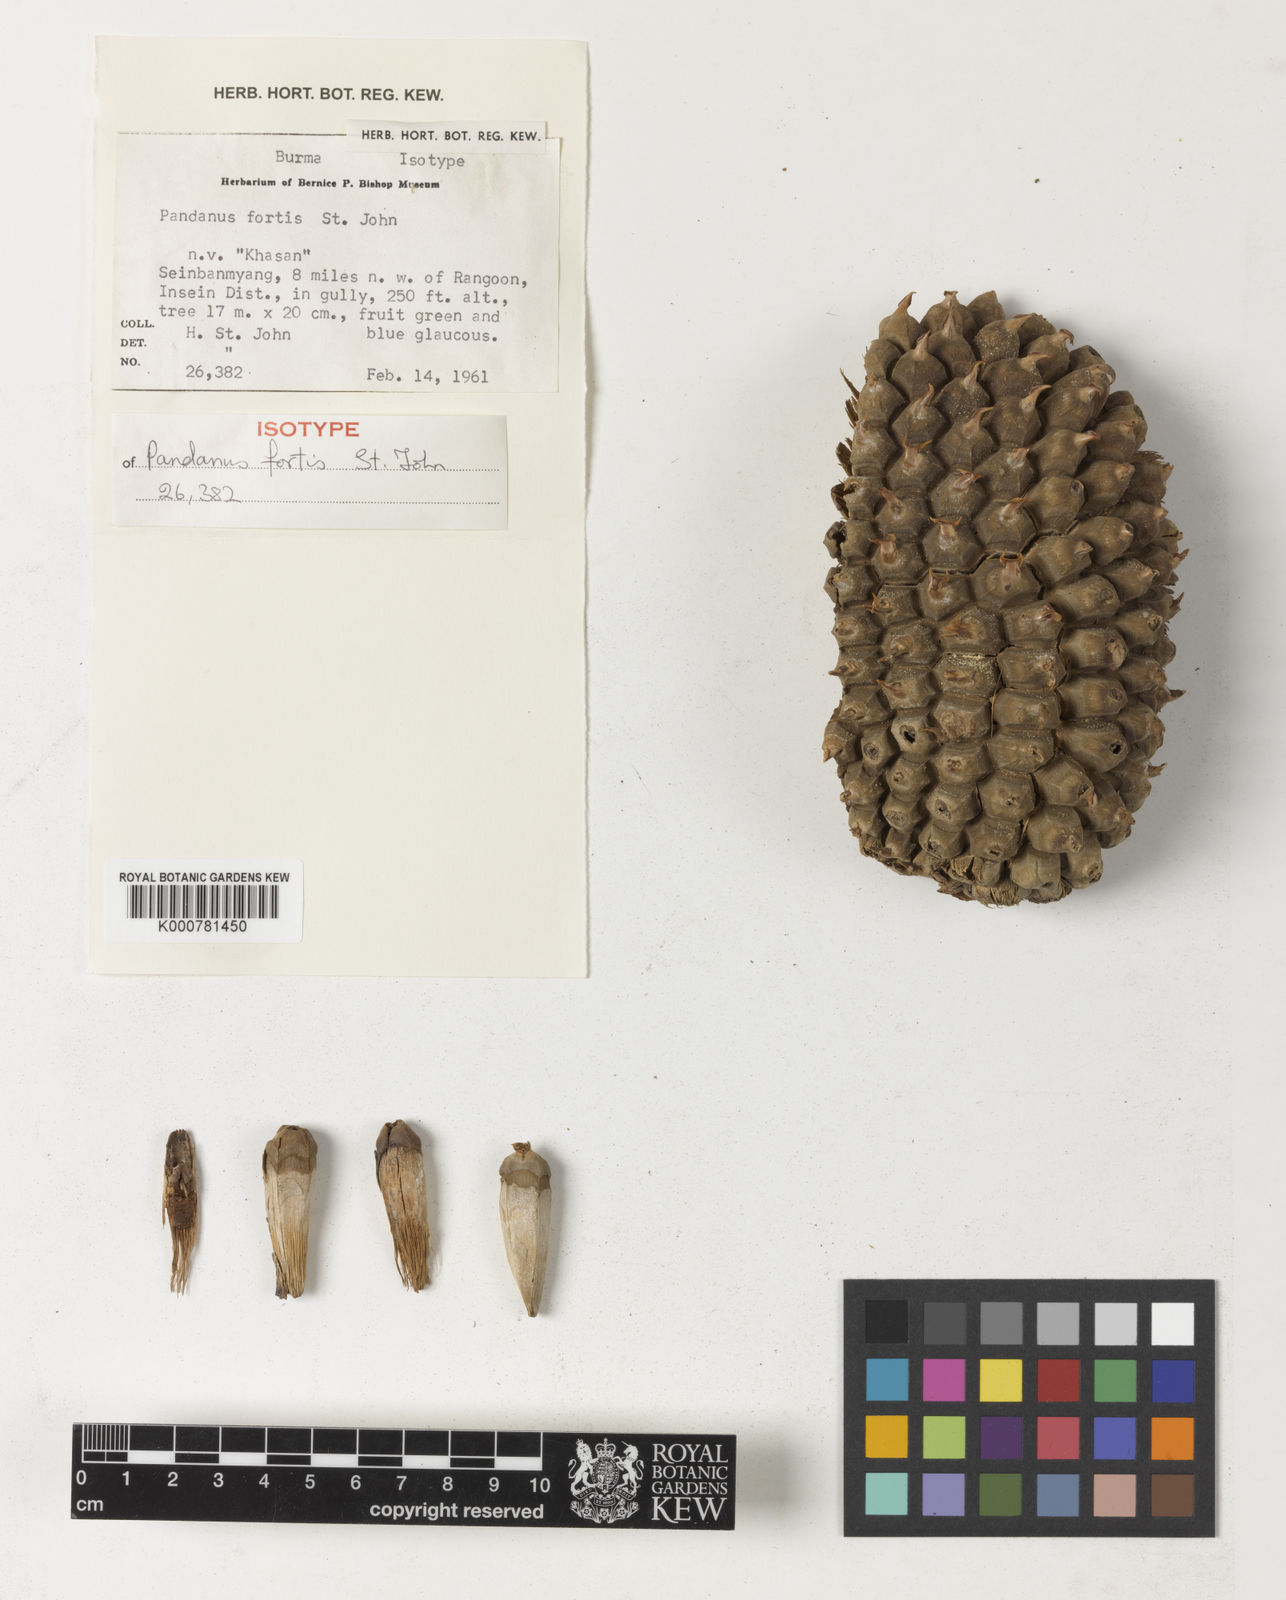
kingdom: Plantae
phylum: Tracheophyta
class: Liliopsida
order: Pandanales
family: Pandanaceae
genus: Pandanus
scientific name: Pandanus
